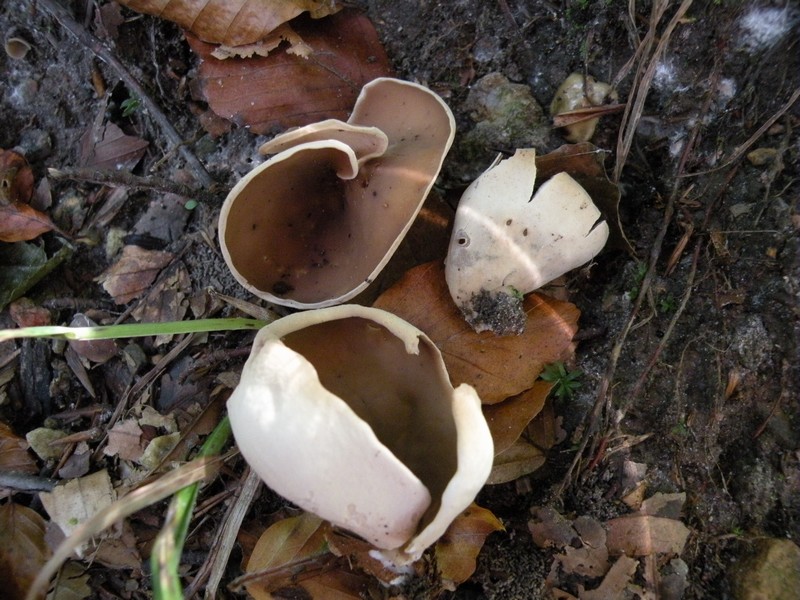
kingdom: Fungi
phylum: Ascomycota
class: Pezizomycetes
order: Pezizales
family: Otideaceae
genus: Otidea
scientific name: Otidea alutacea
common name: læder-ørebæger
